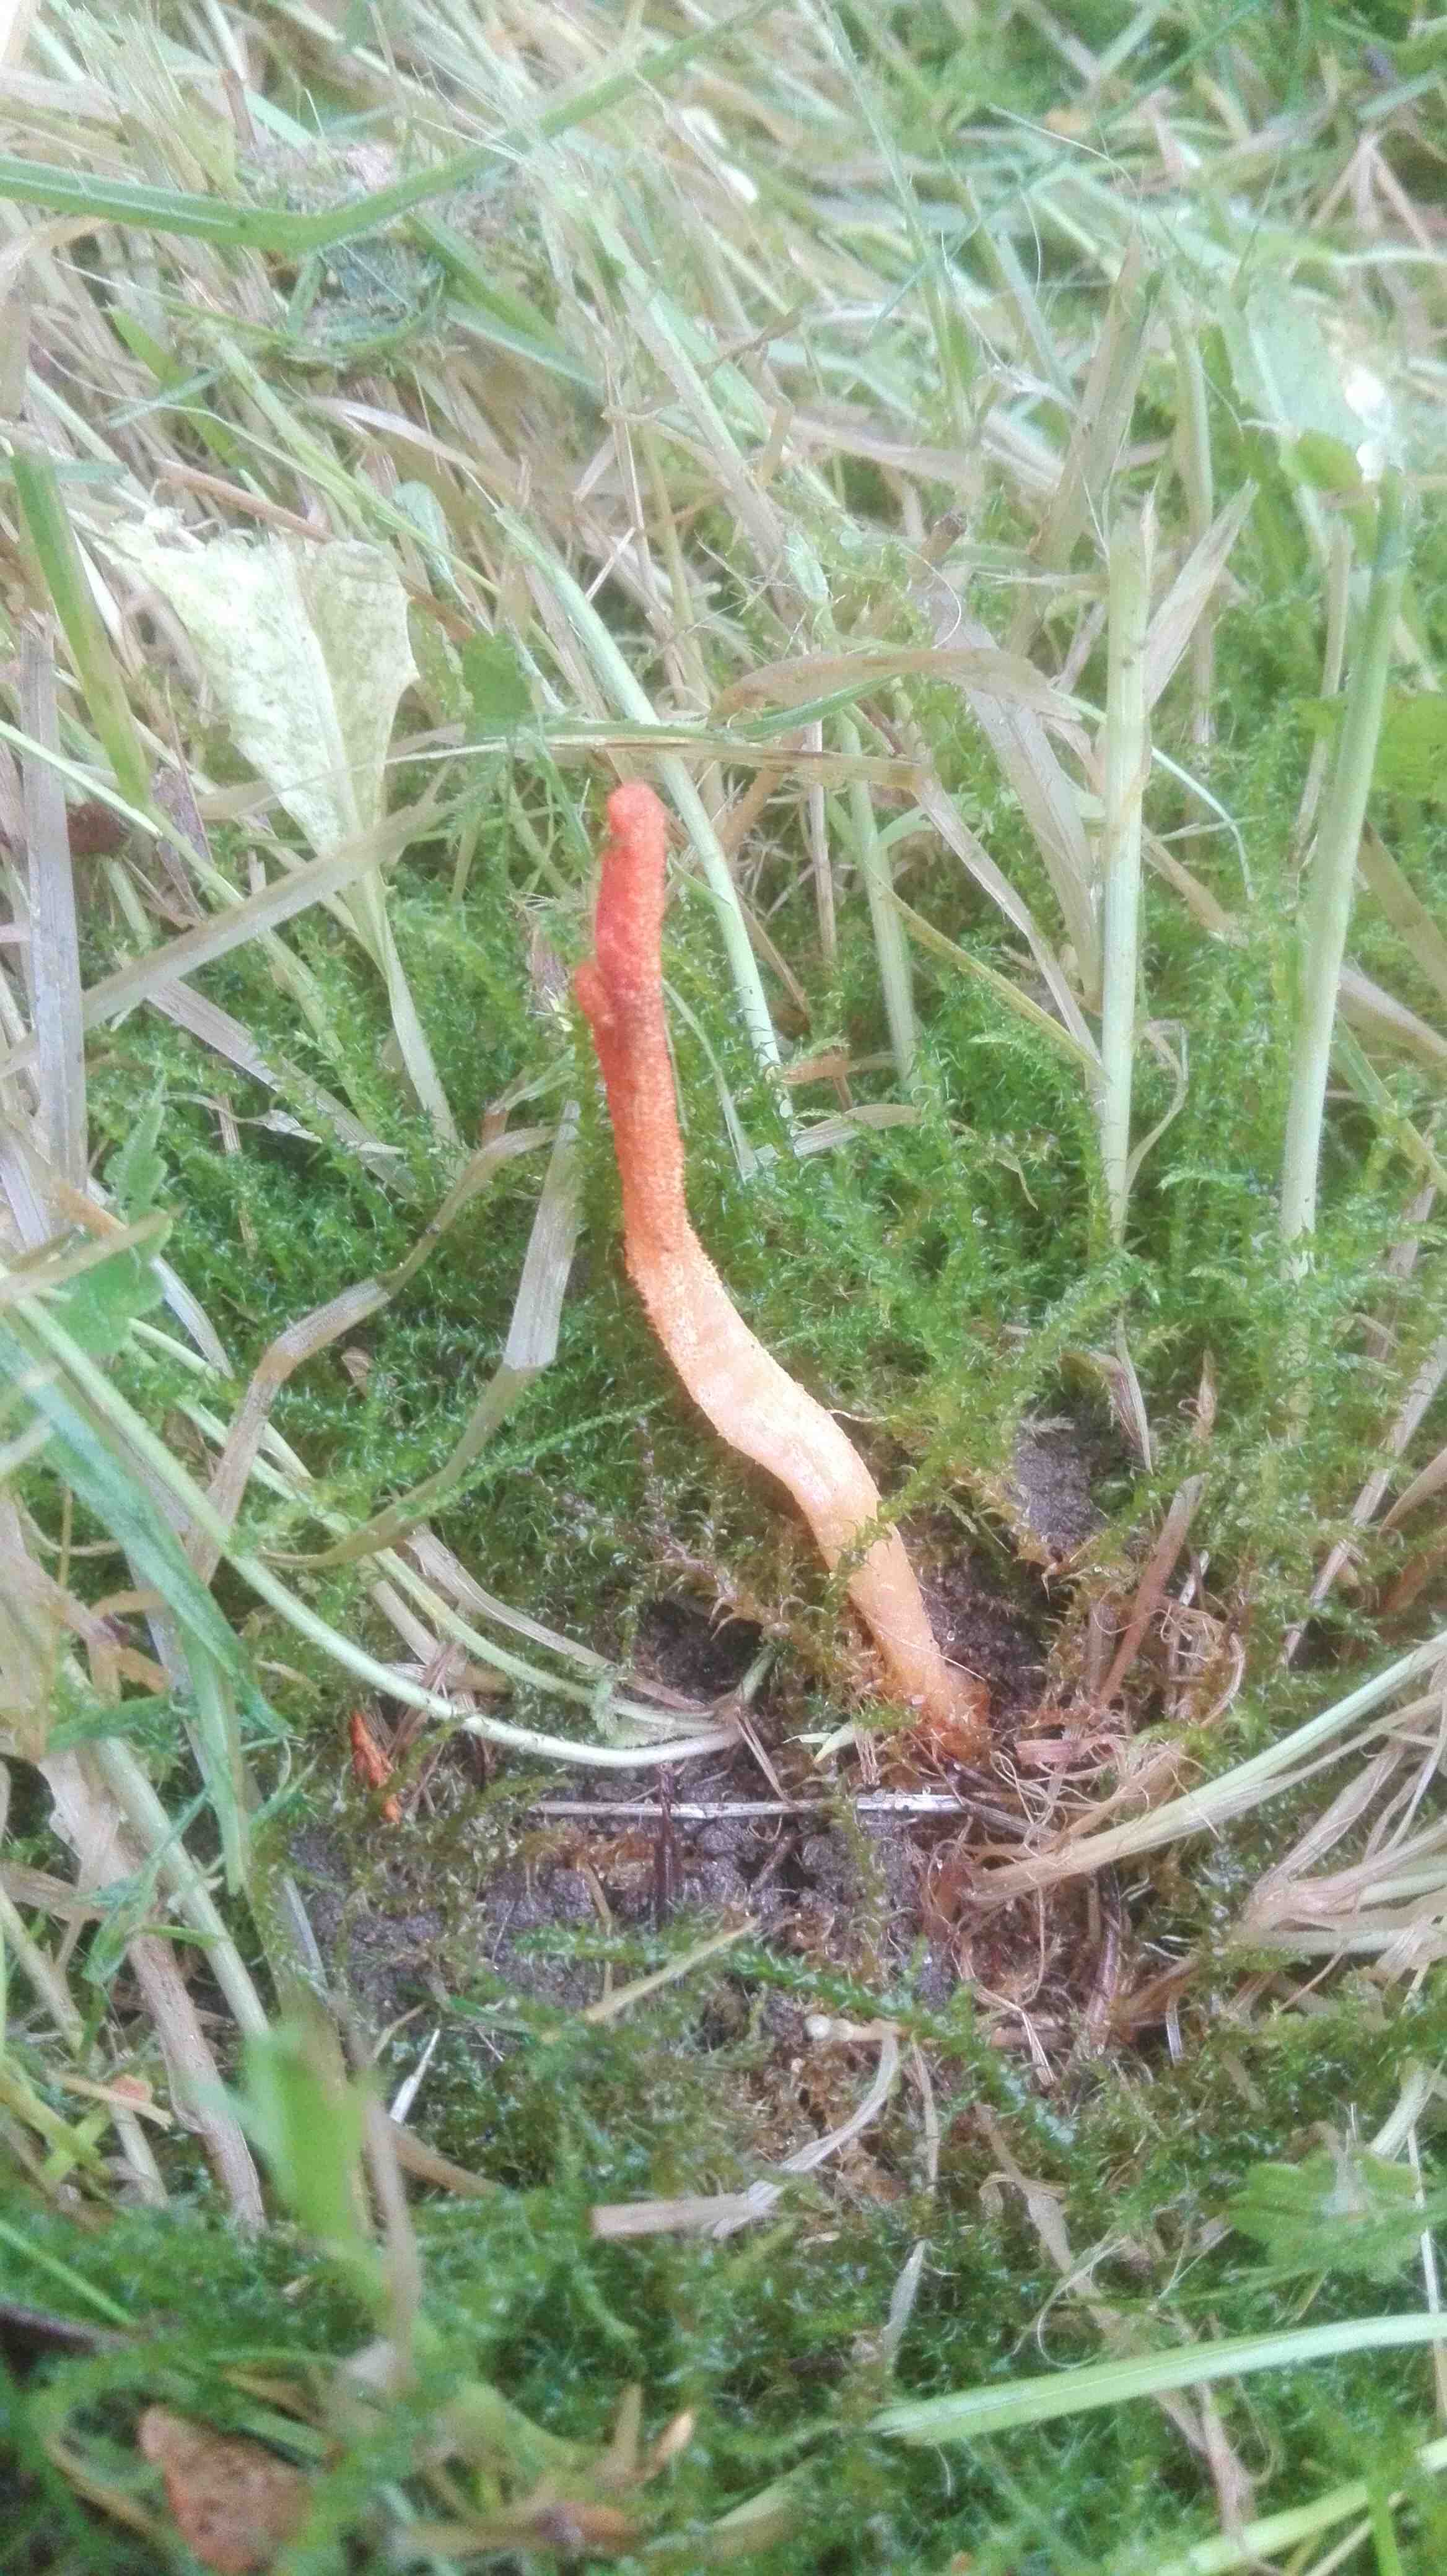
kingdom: Fungi
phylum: Ascomycota
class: Sordariomycetes
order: Hypocreales
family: Cordycipitaceae
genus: Cordyceps
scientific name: Cordyceps militaris
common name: puppe-snyltekølle
